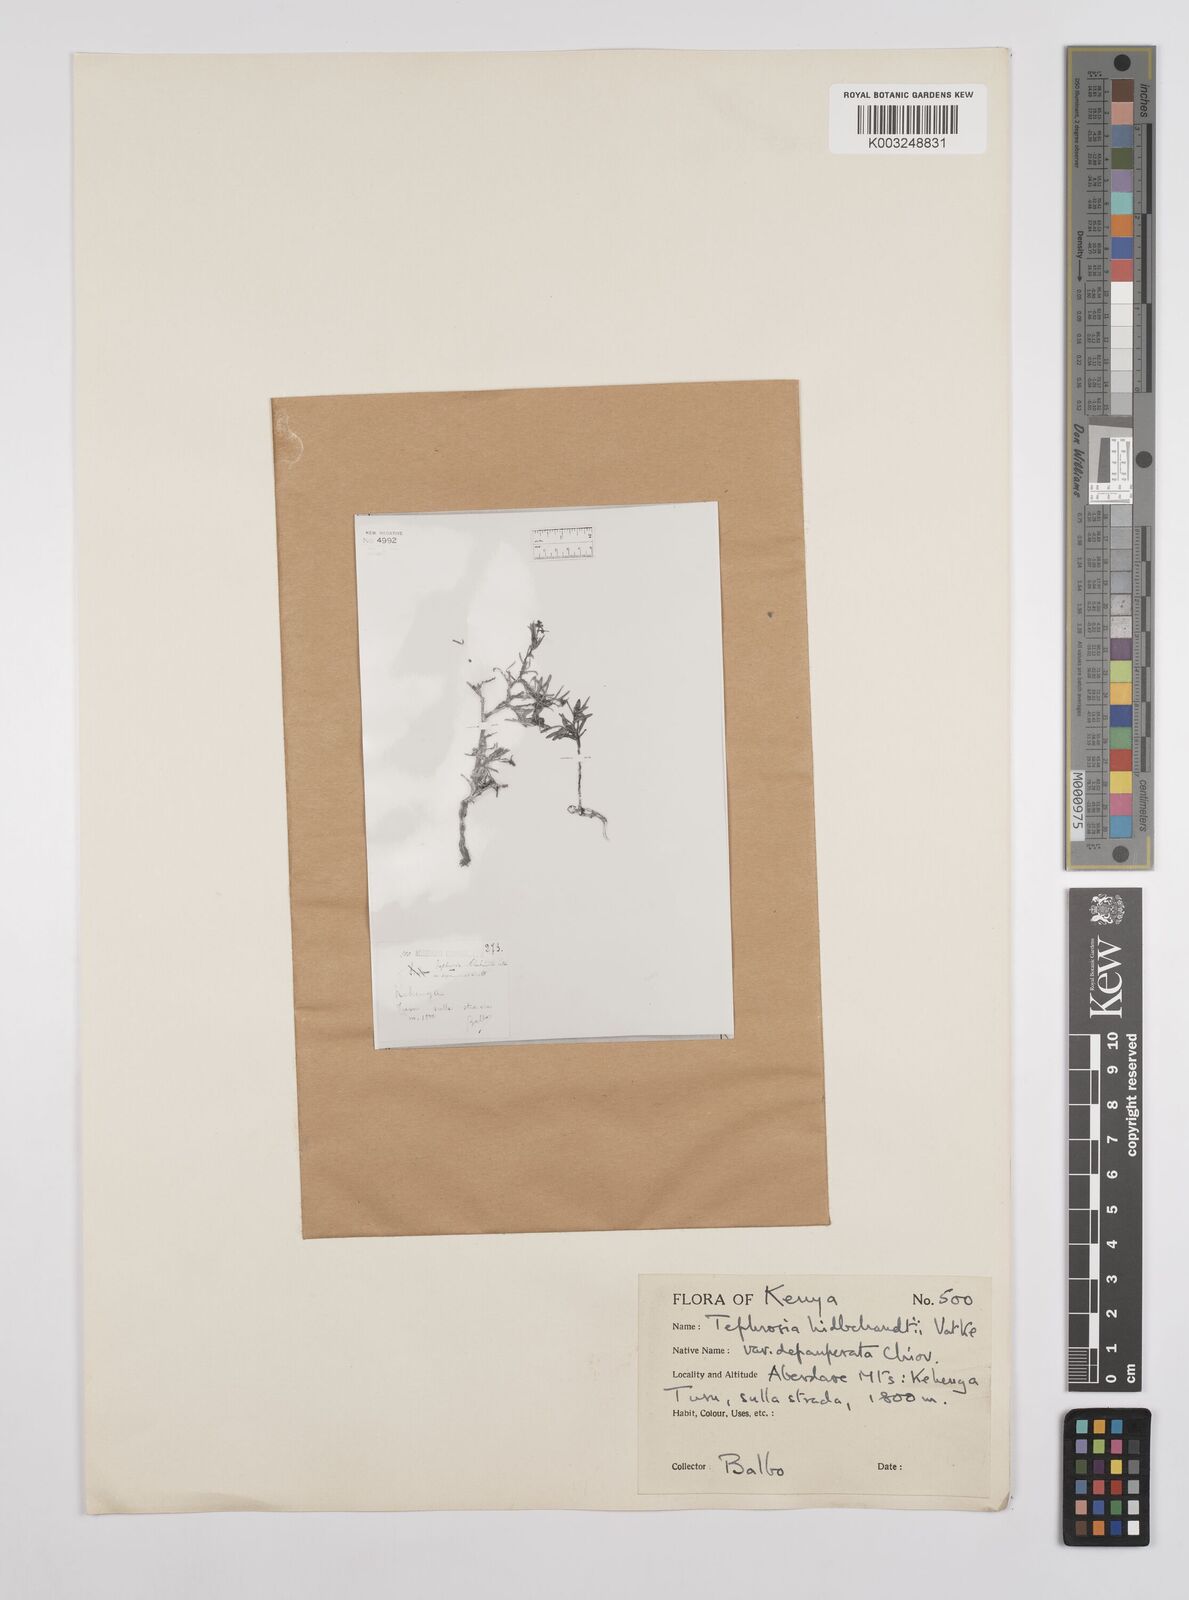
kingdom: Plantae
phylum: Tracheophyta
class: Magnoliopsida
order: Fabales
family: Fabaceae
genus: Tephrosia
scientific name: Tephrosia hildebrandtii
